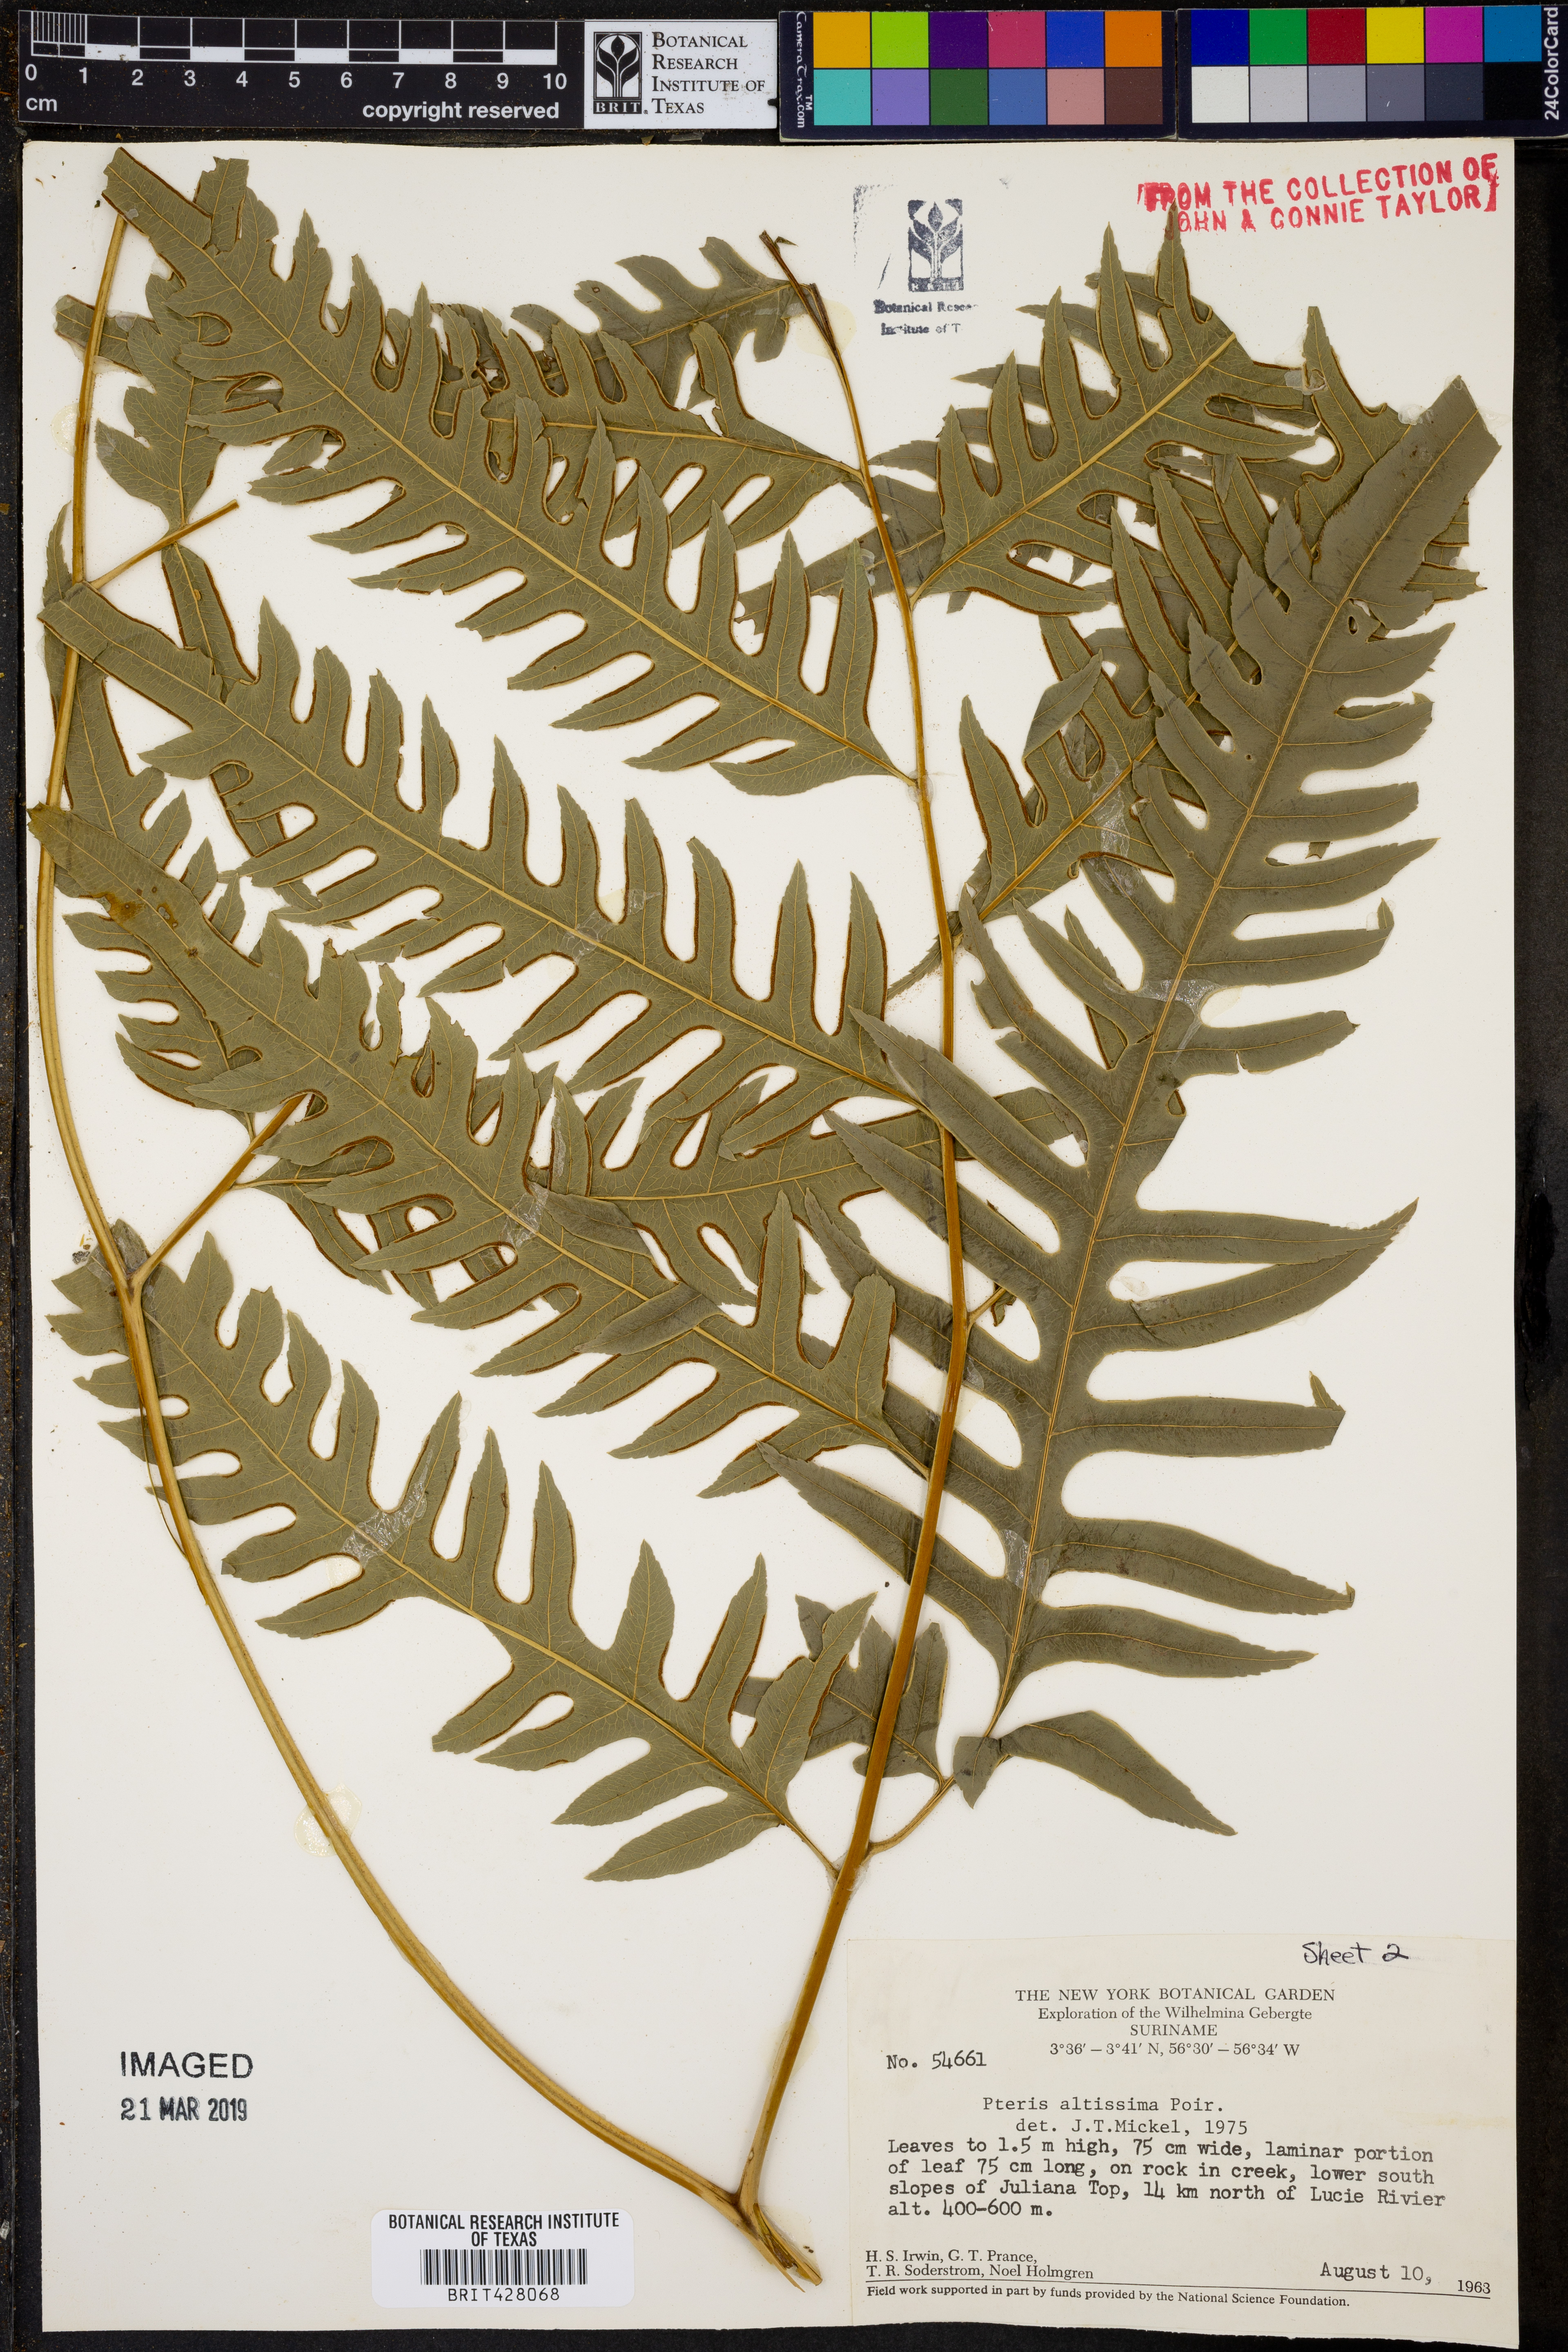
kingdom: Plantae
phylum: Tracheophyta
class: Polypodiopsida
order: Polypodiales
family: Pteridaceae
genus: Pteris
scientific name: Pteris altissima
